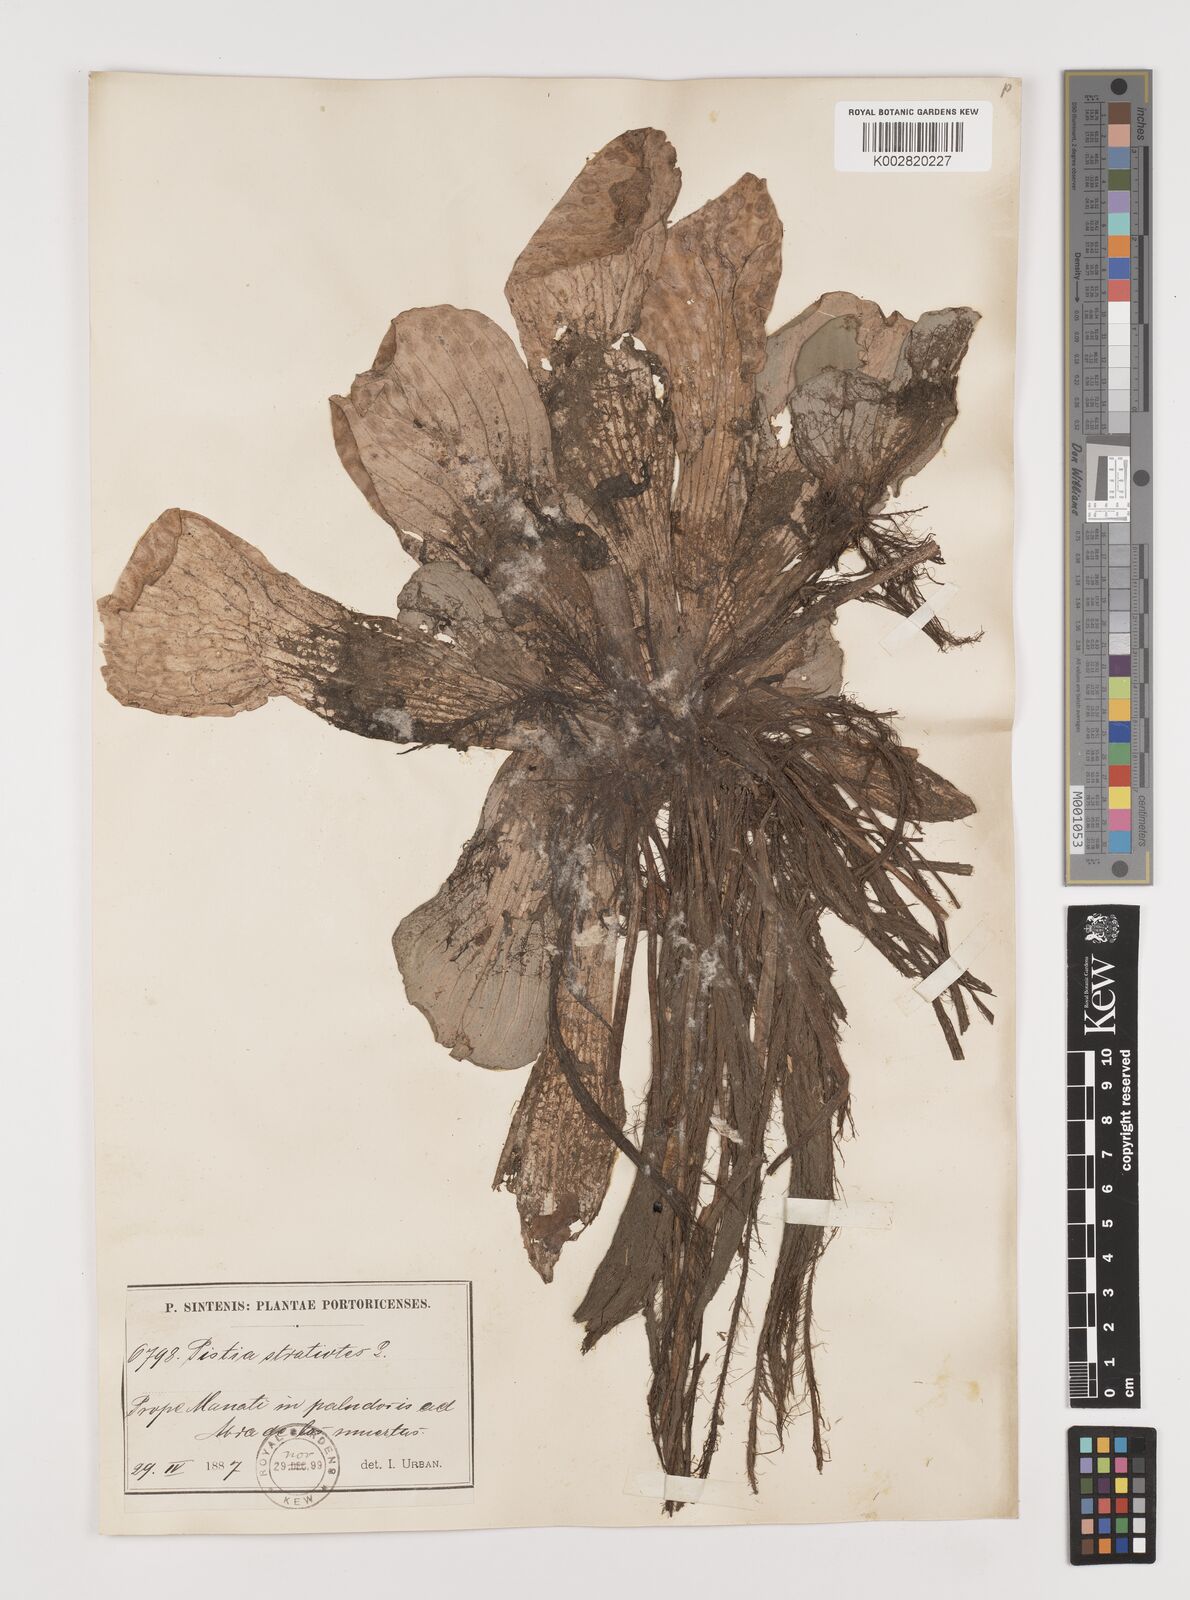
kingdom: Plantae
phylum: Tracheophyta
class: Liliopsida
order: Alismatales
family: Araceae
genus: Pistia
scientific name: Pistia stratiotes
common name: Water lettuce
